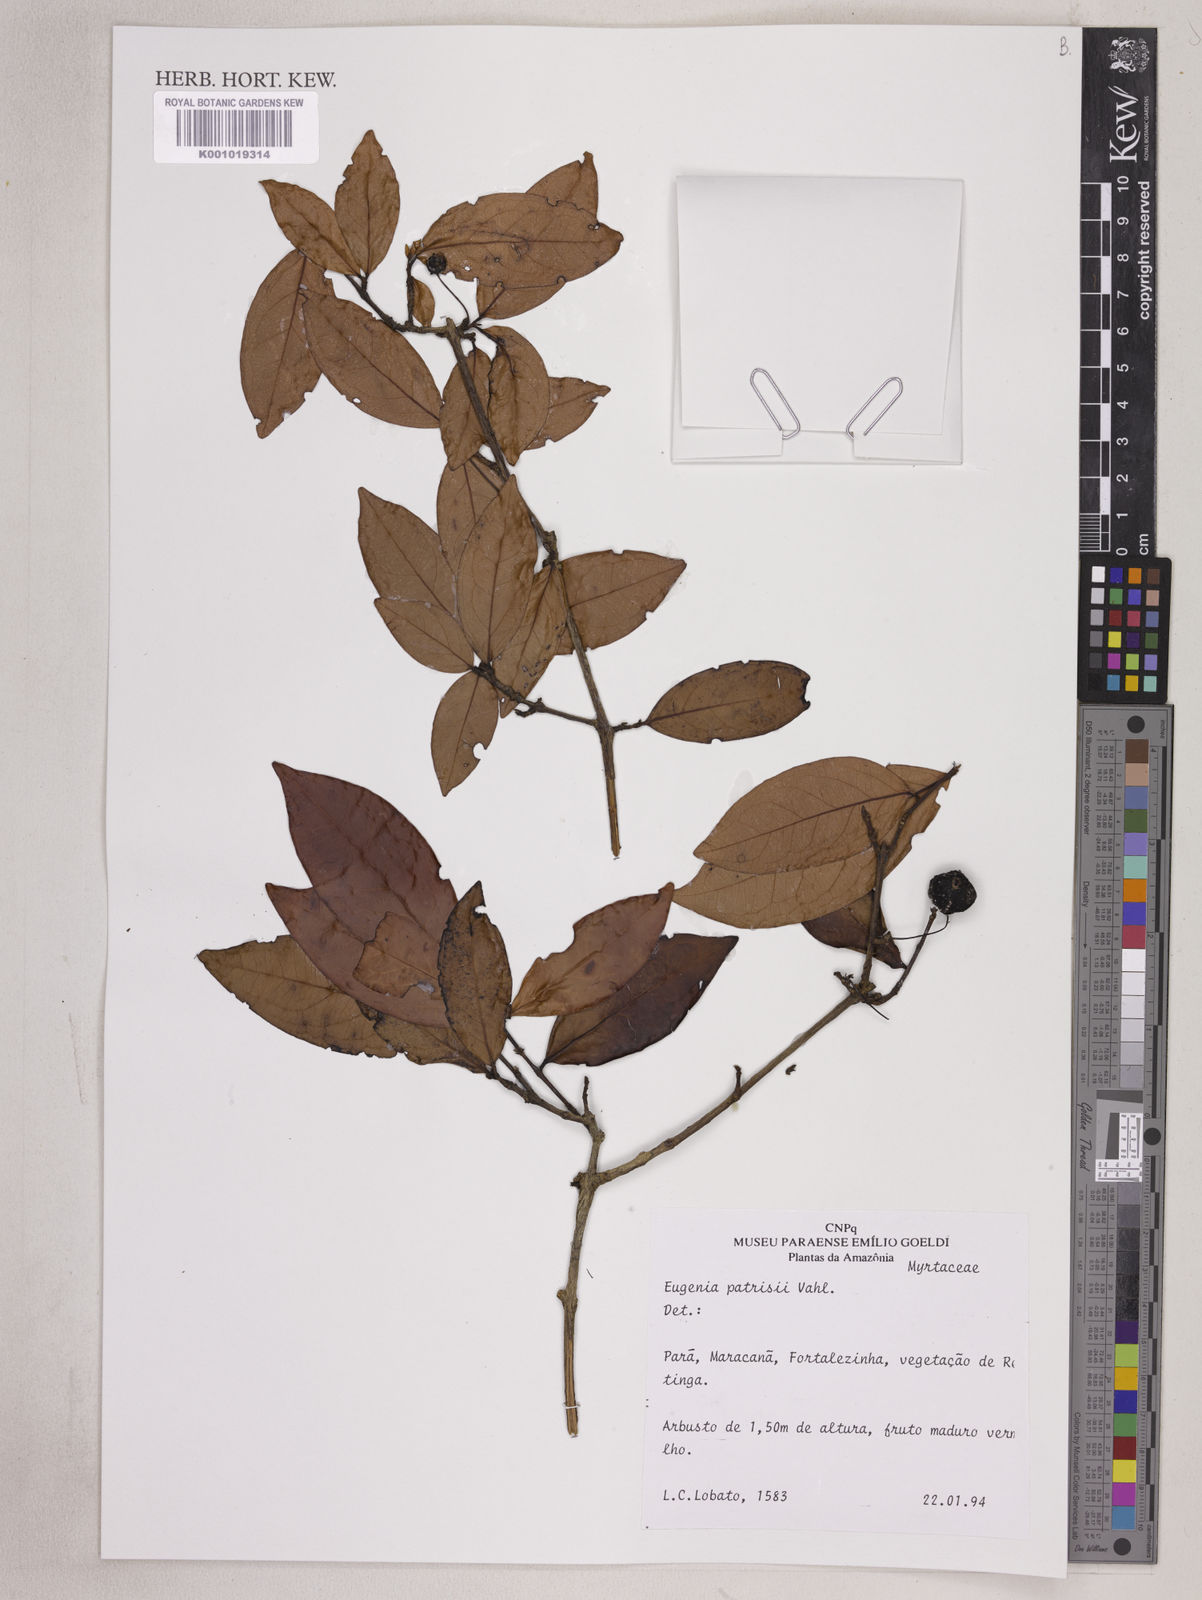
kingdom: Plantae
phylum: Tracheophyta
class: Magnoliopsida
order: Myrtales
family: Myrtaceae
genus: Eugenia
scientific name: Eugenia patrisii
